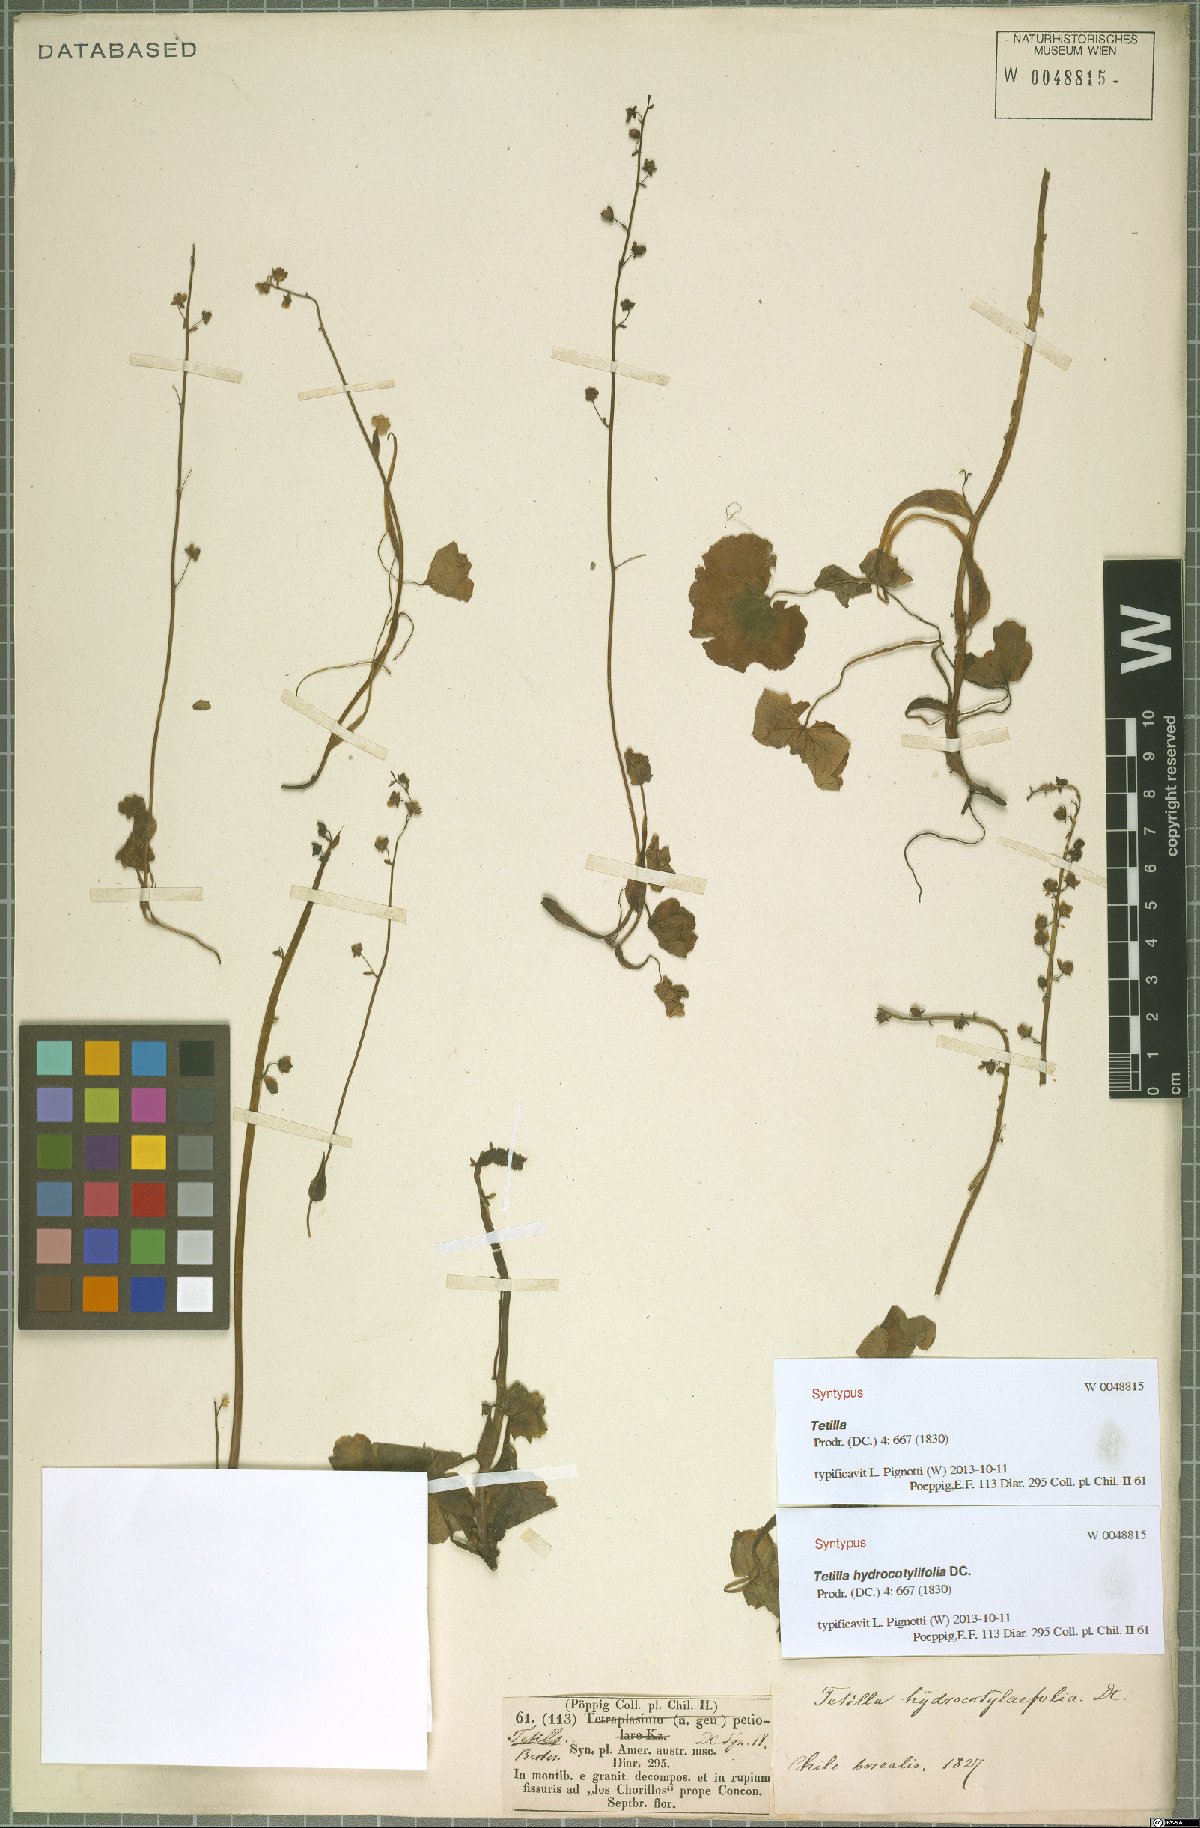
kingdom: Plantae
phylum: Tracheophyta
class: Magnoliopsida
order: Geraniales
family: Francoaceae
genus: Tetilla
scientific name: Tetilla hydrocotylifolia
